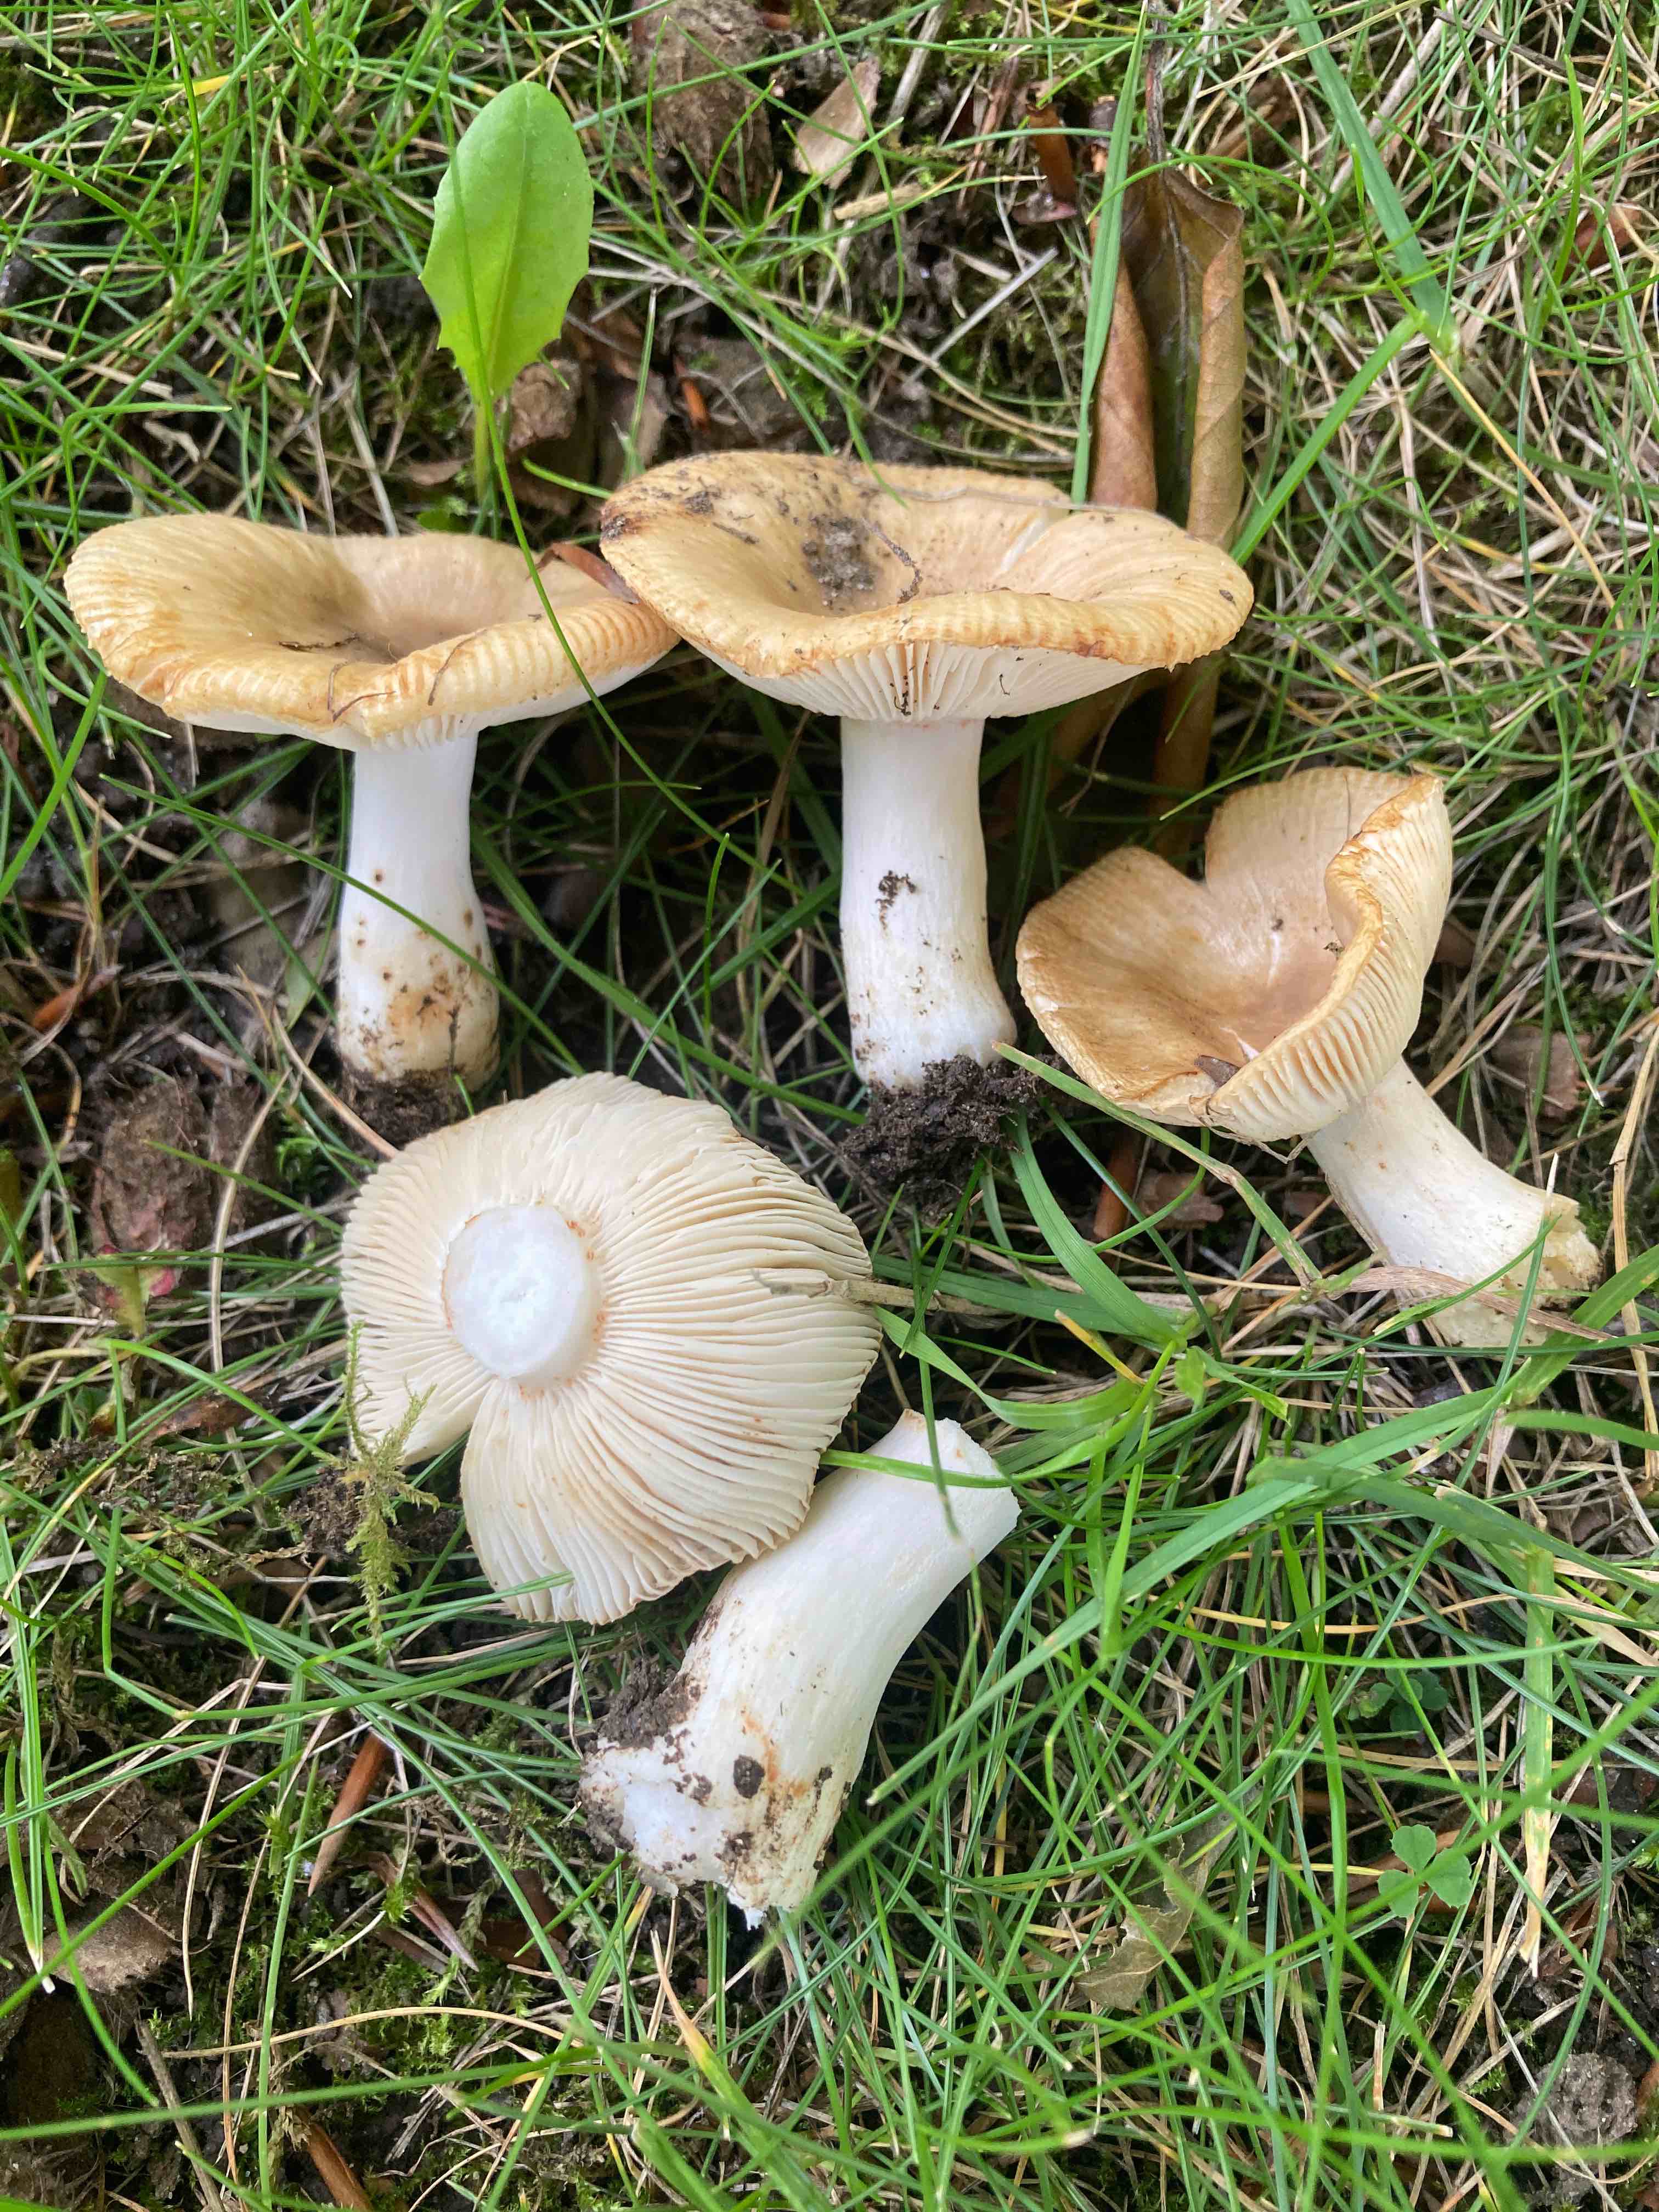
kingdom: Fungi
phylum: Basidiomycota
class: Agaricomycetes
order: Russulales
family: Russulaceae
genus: Russula
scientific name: Russula recondita
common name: mild kam-skørhat
